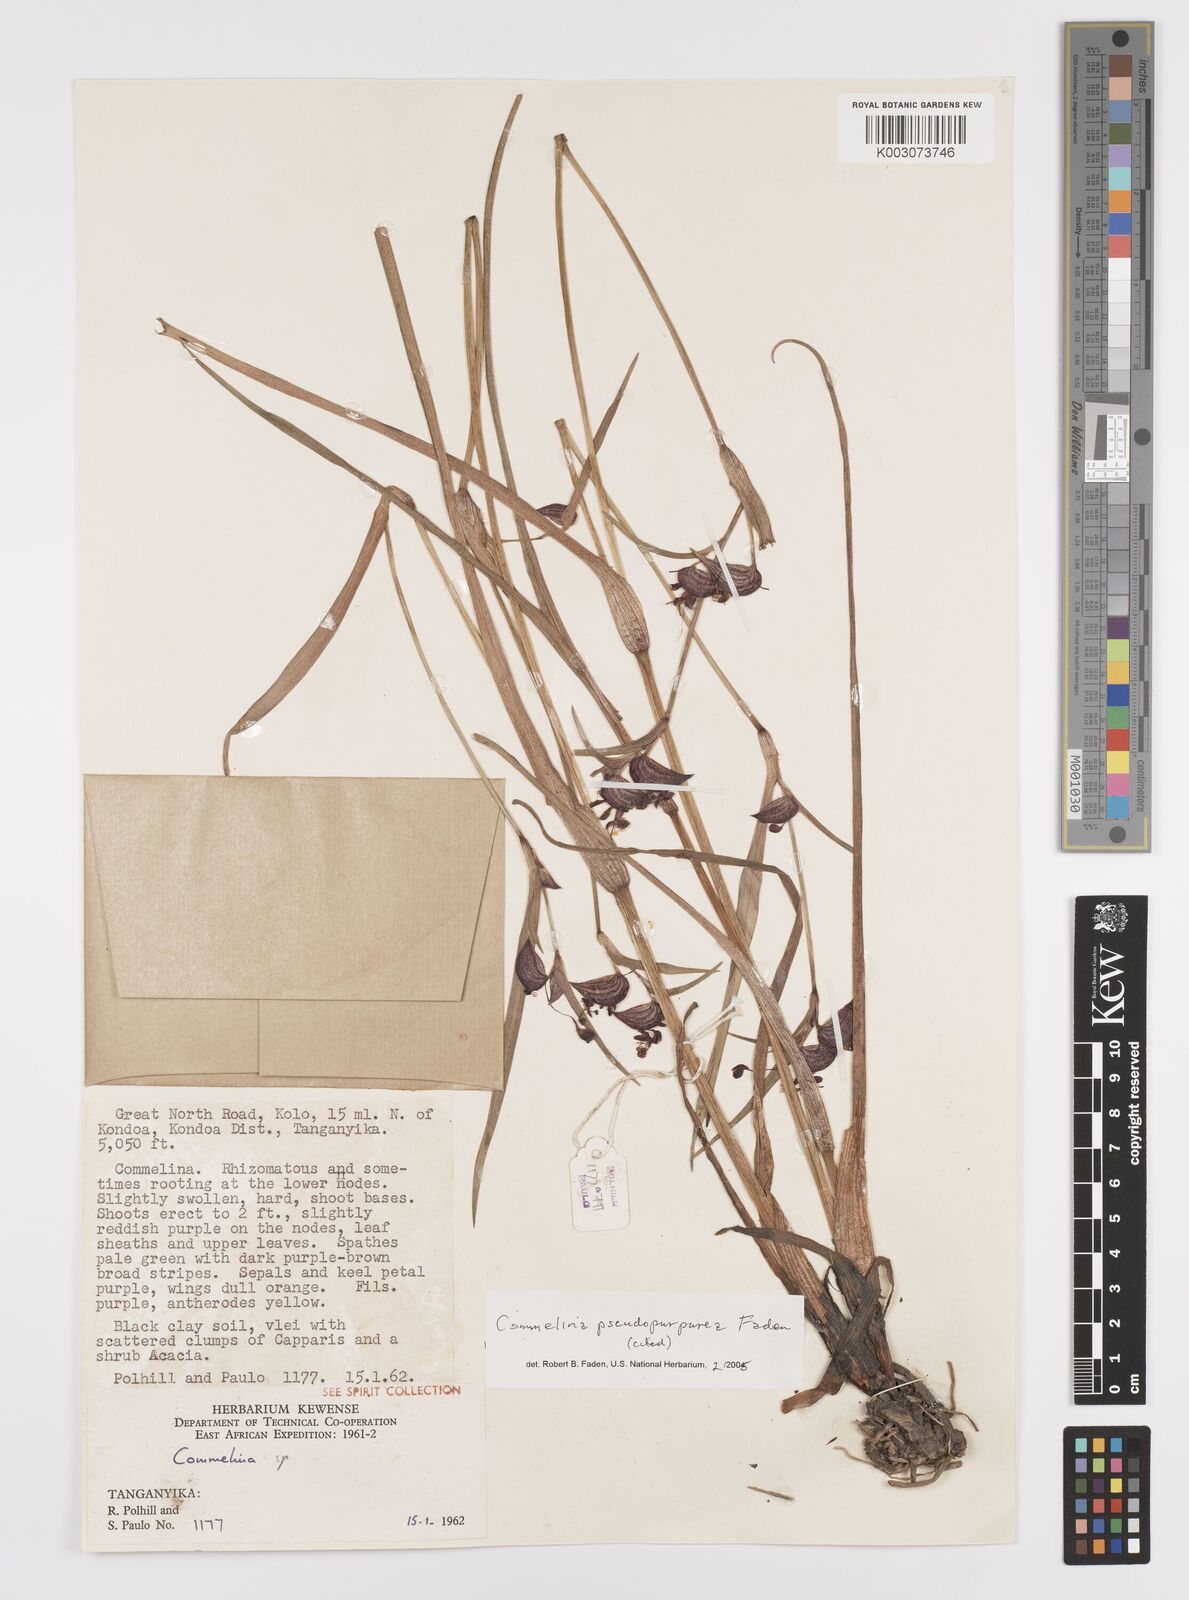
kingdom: Plantae
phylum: Tracheophyta
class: Liliopsida
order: Commelinales
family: Commelinaceae
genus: Commelina
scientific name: Commelina pseudopurpurea
